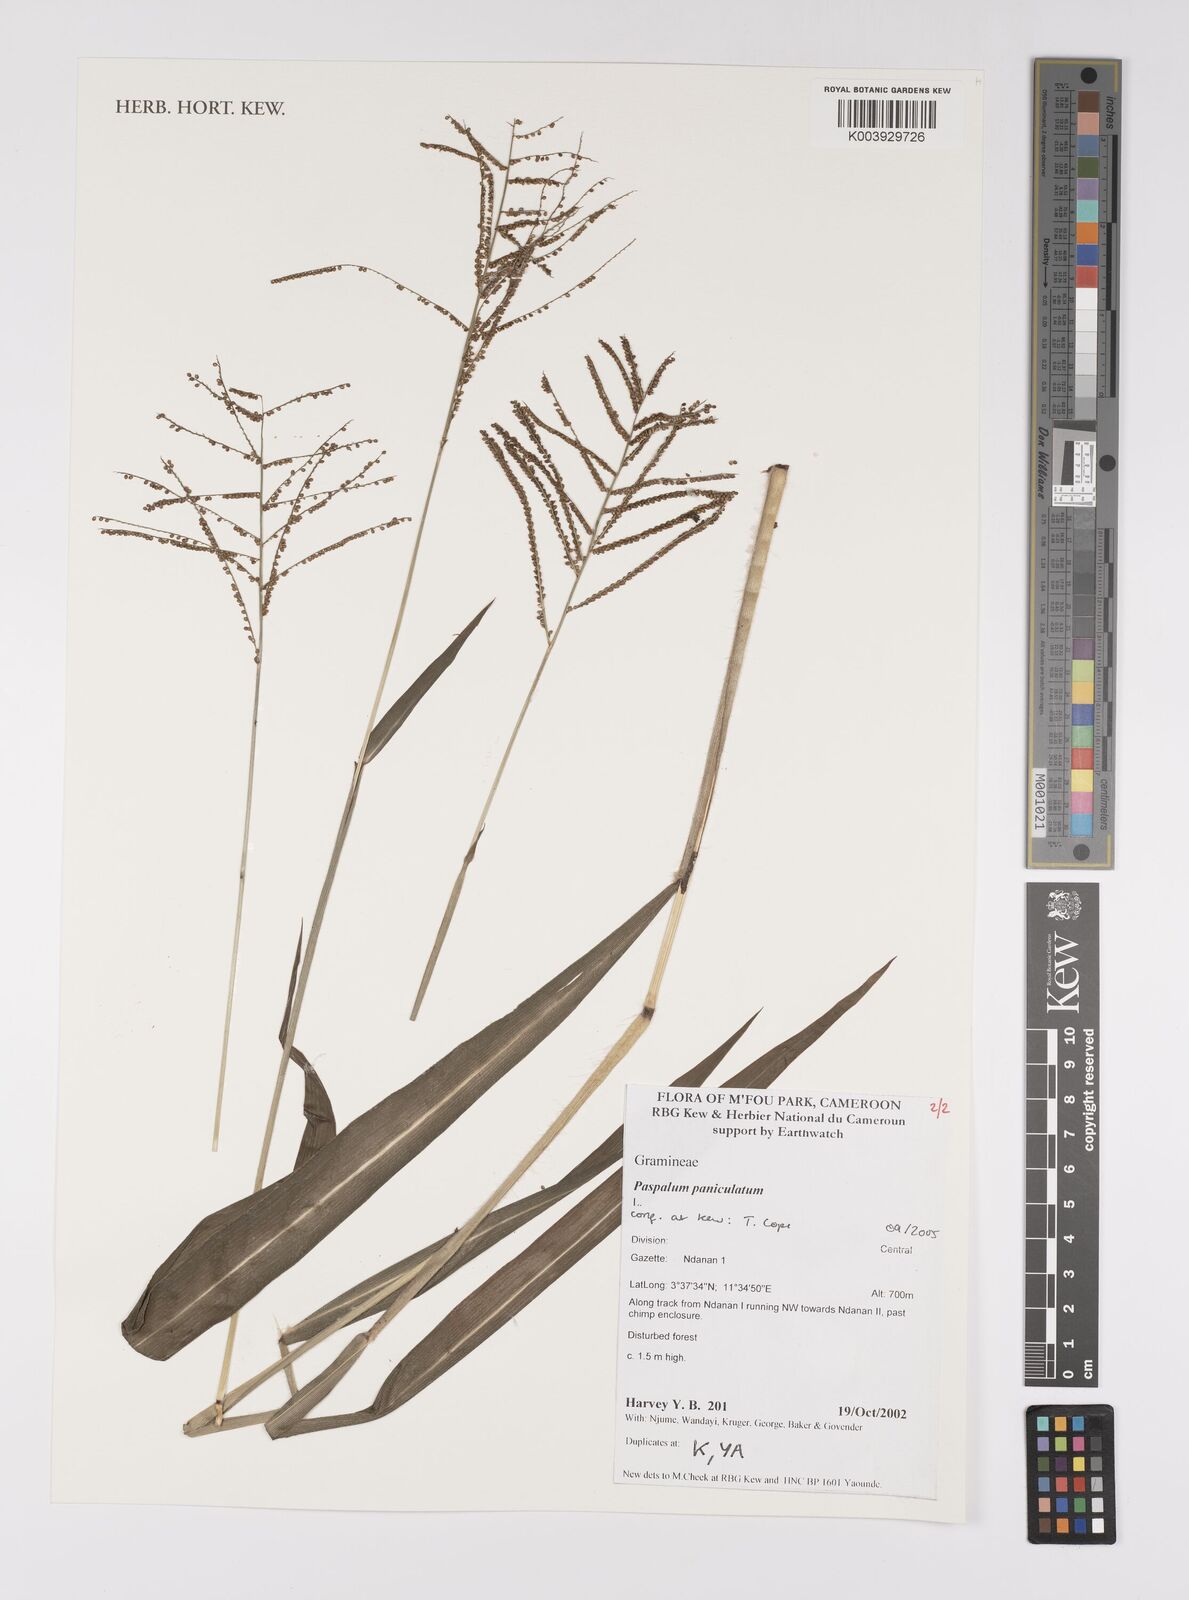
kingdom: Plantae
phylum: Tracheophyta
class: Liliopsida
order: Poales
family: Poaceae
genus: Paspalum
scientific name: Paspalum paniculatum
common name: Arrocillo
